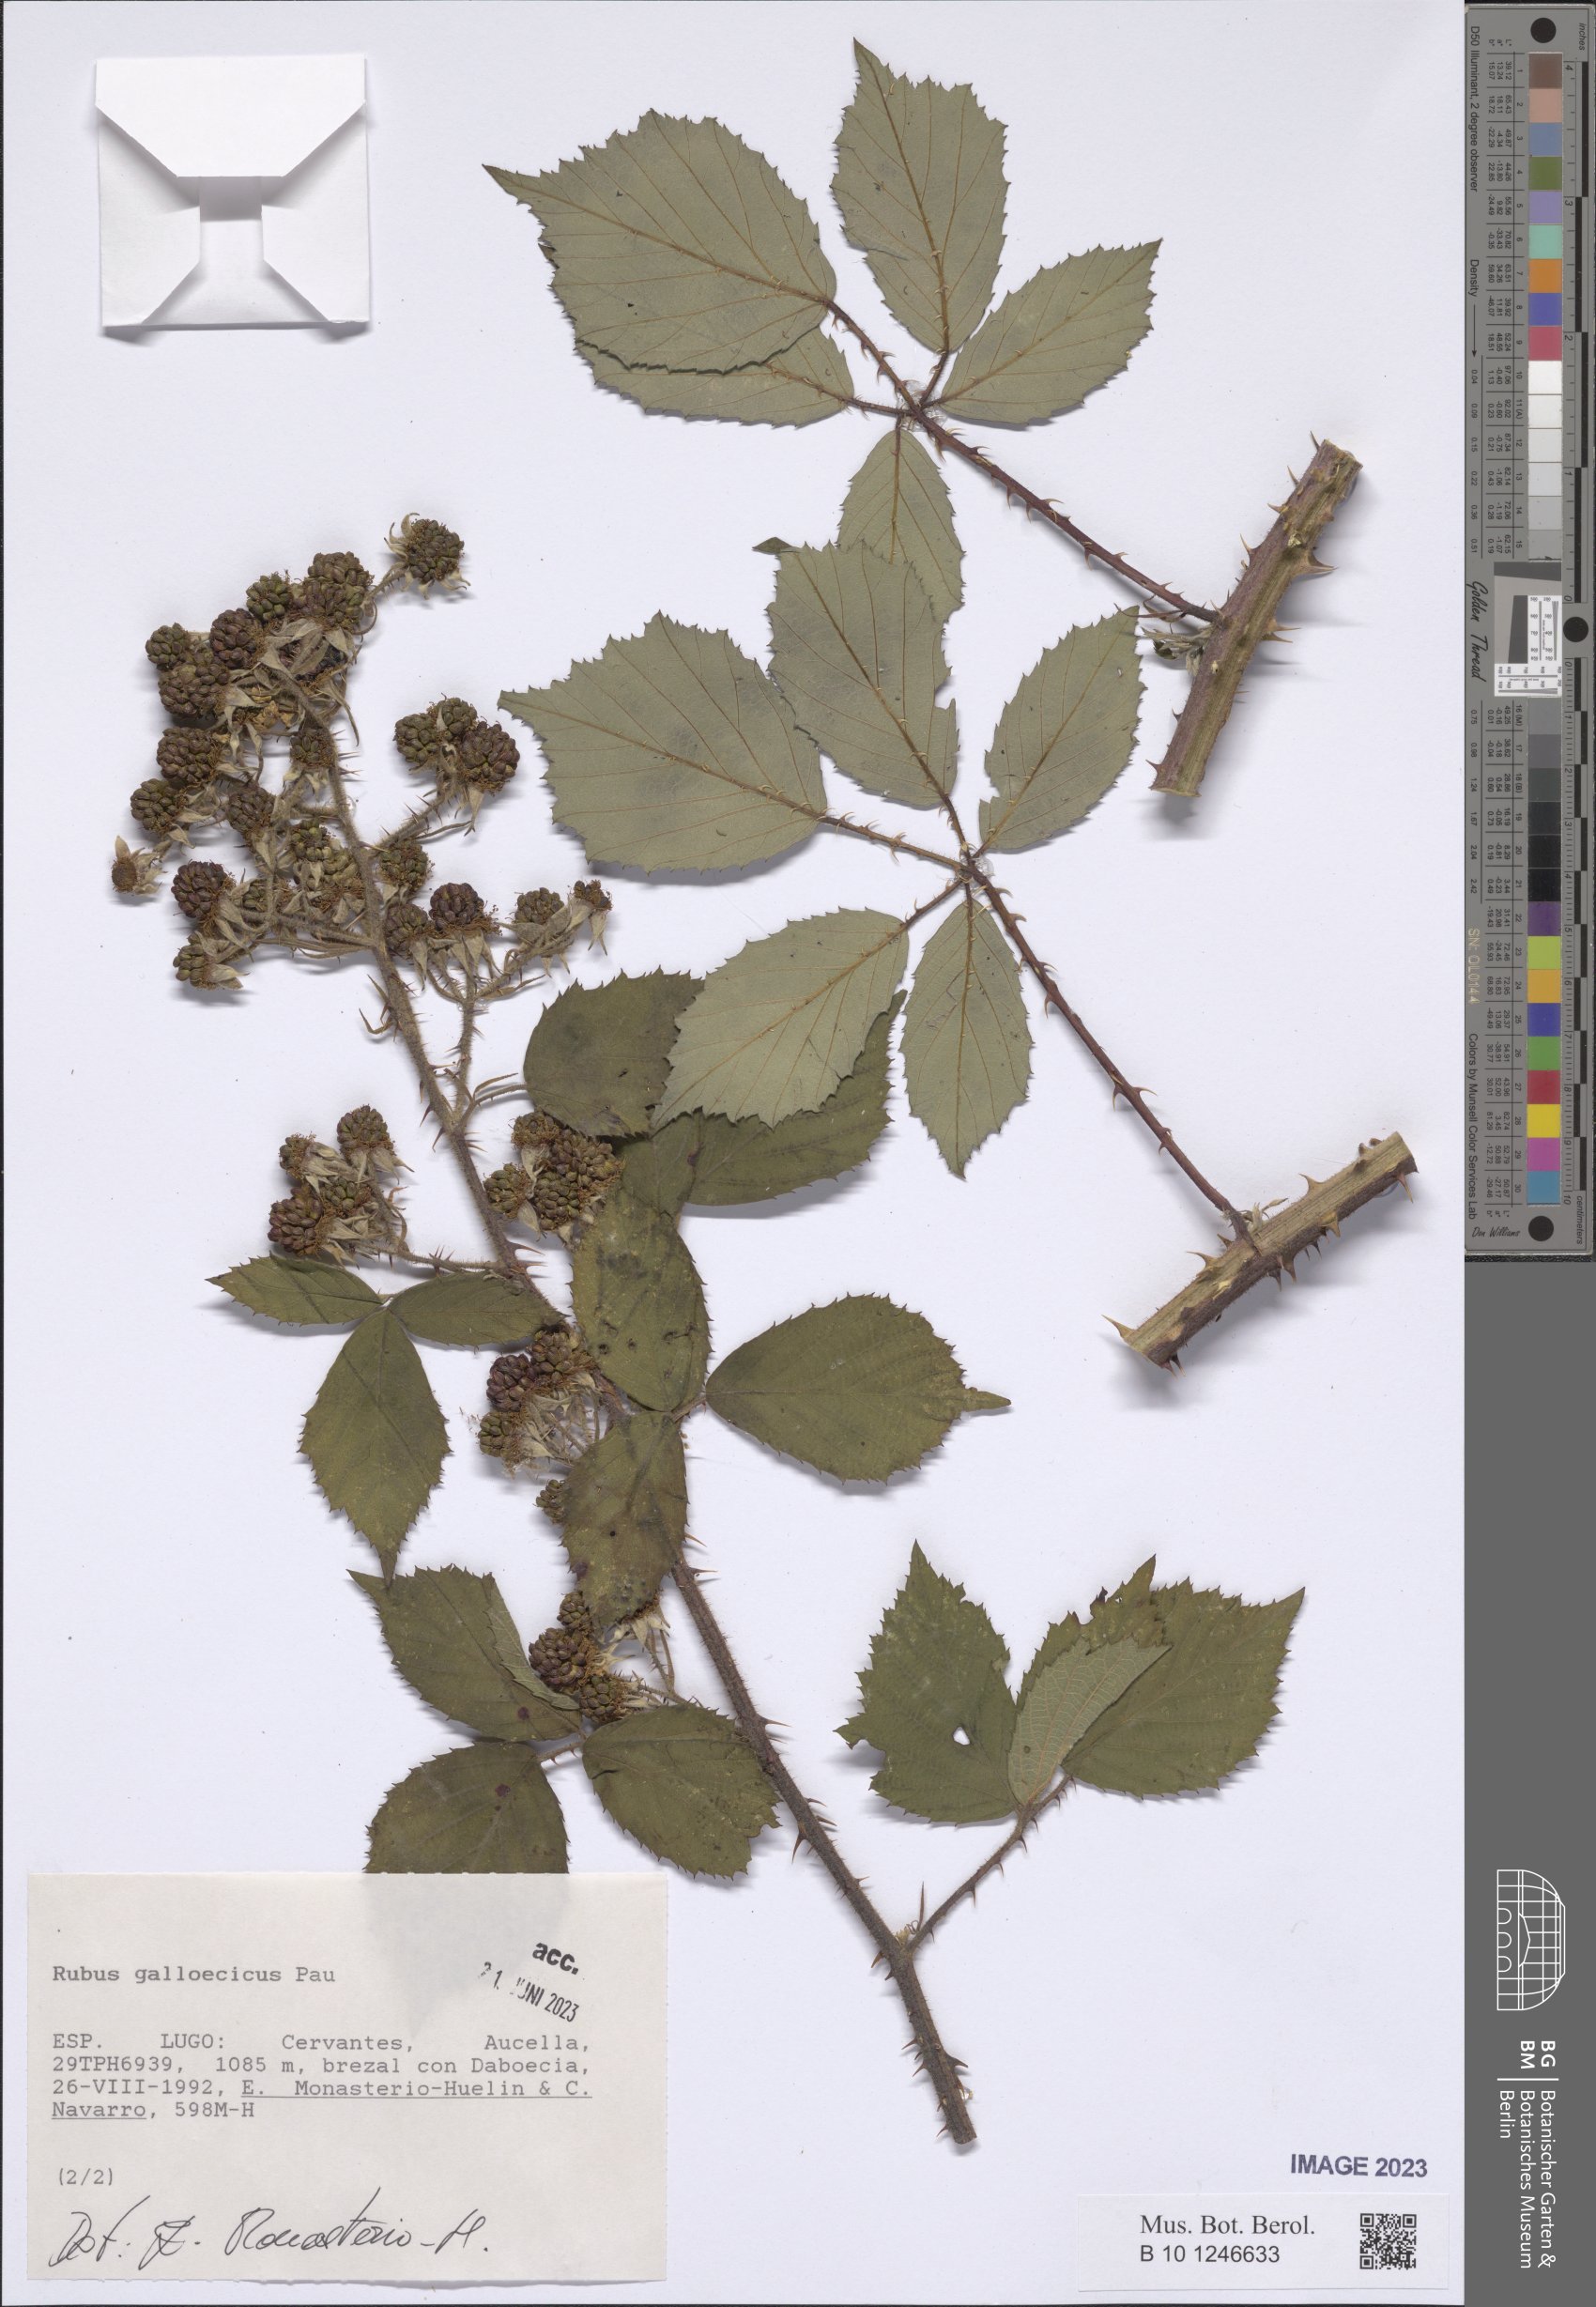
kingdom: Plantae
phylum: Tracheophyta
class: Magnoliopsida
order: Rosales
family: Rosaceae
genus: Rubus
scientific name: Rubus galloecicus
